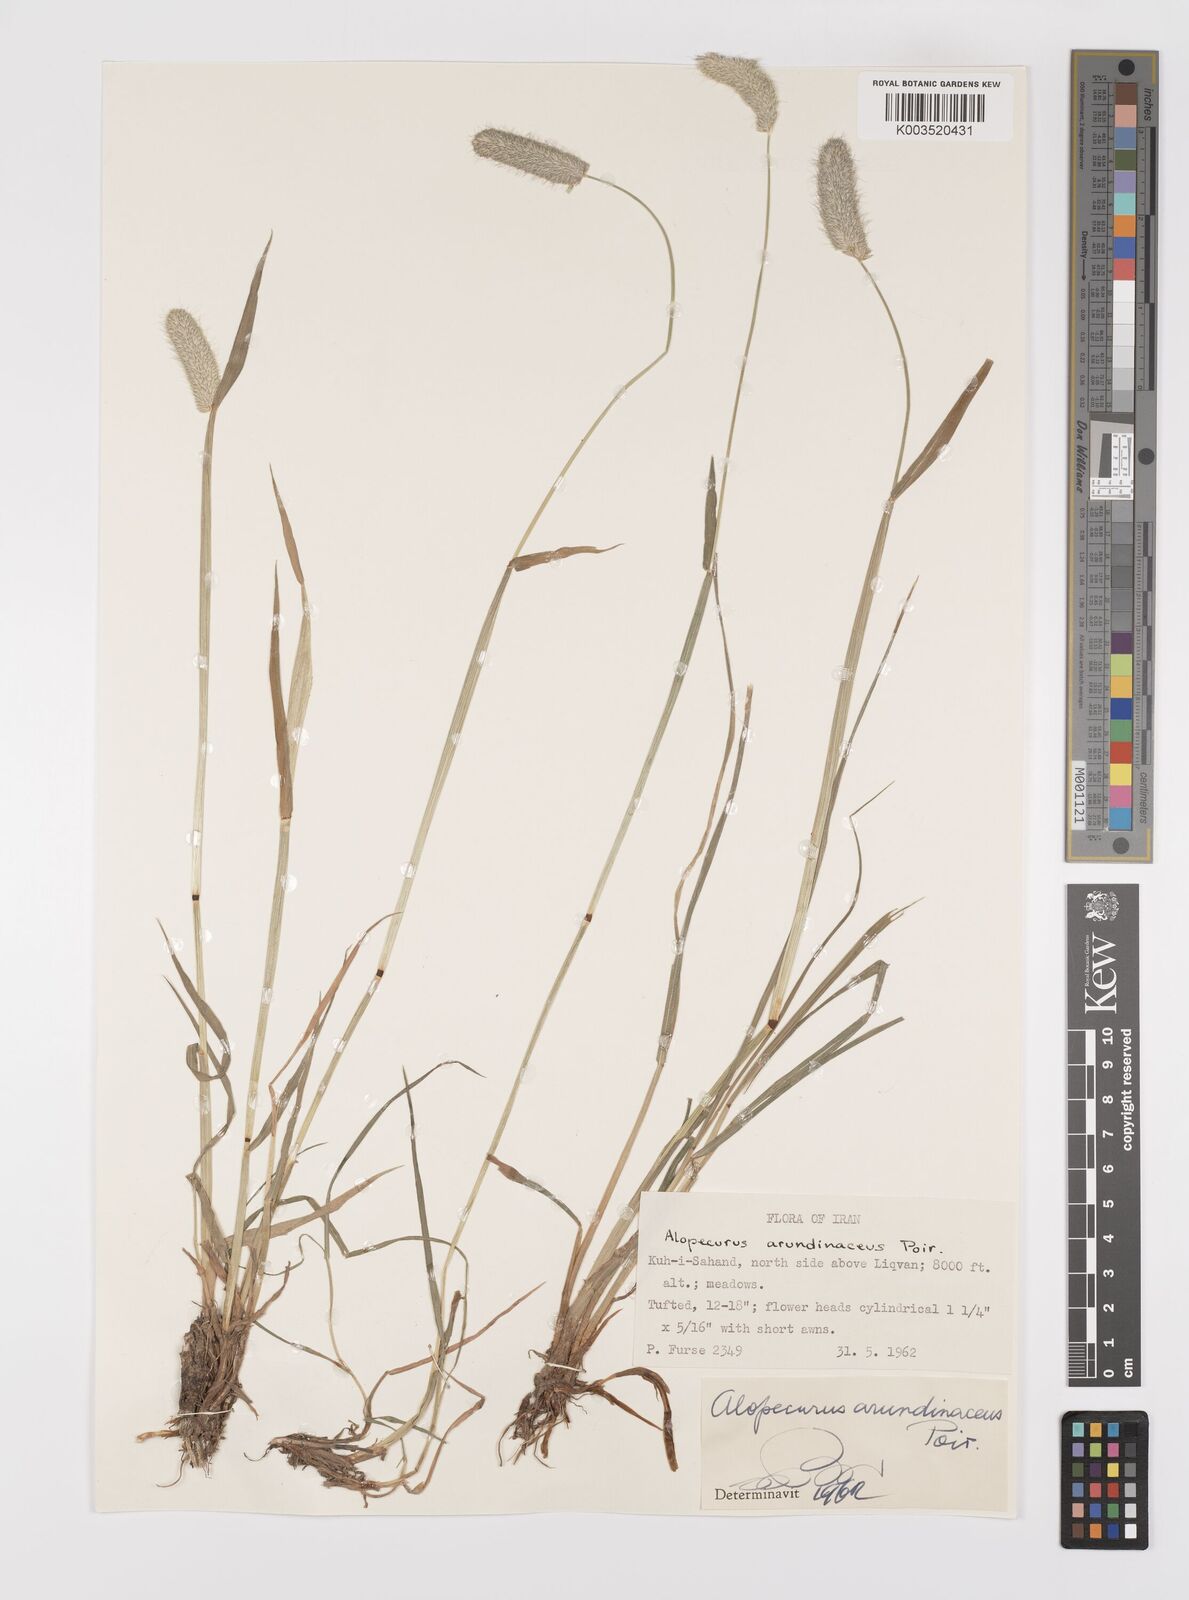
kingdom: Plantae
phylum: Tracheophyta
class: Liliopsida
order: Poales
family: Poaceae
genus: Alopecurus
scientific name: Alopecurus arundinaceus
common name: Creeping meadow foxtail
